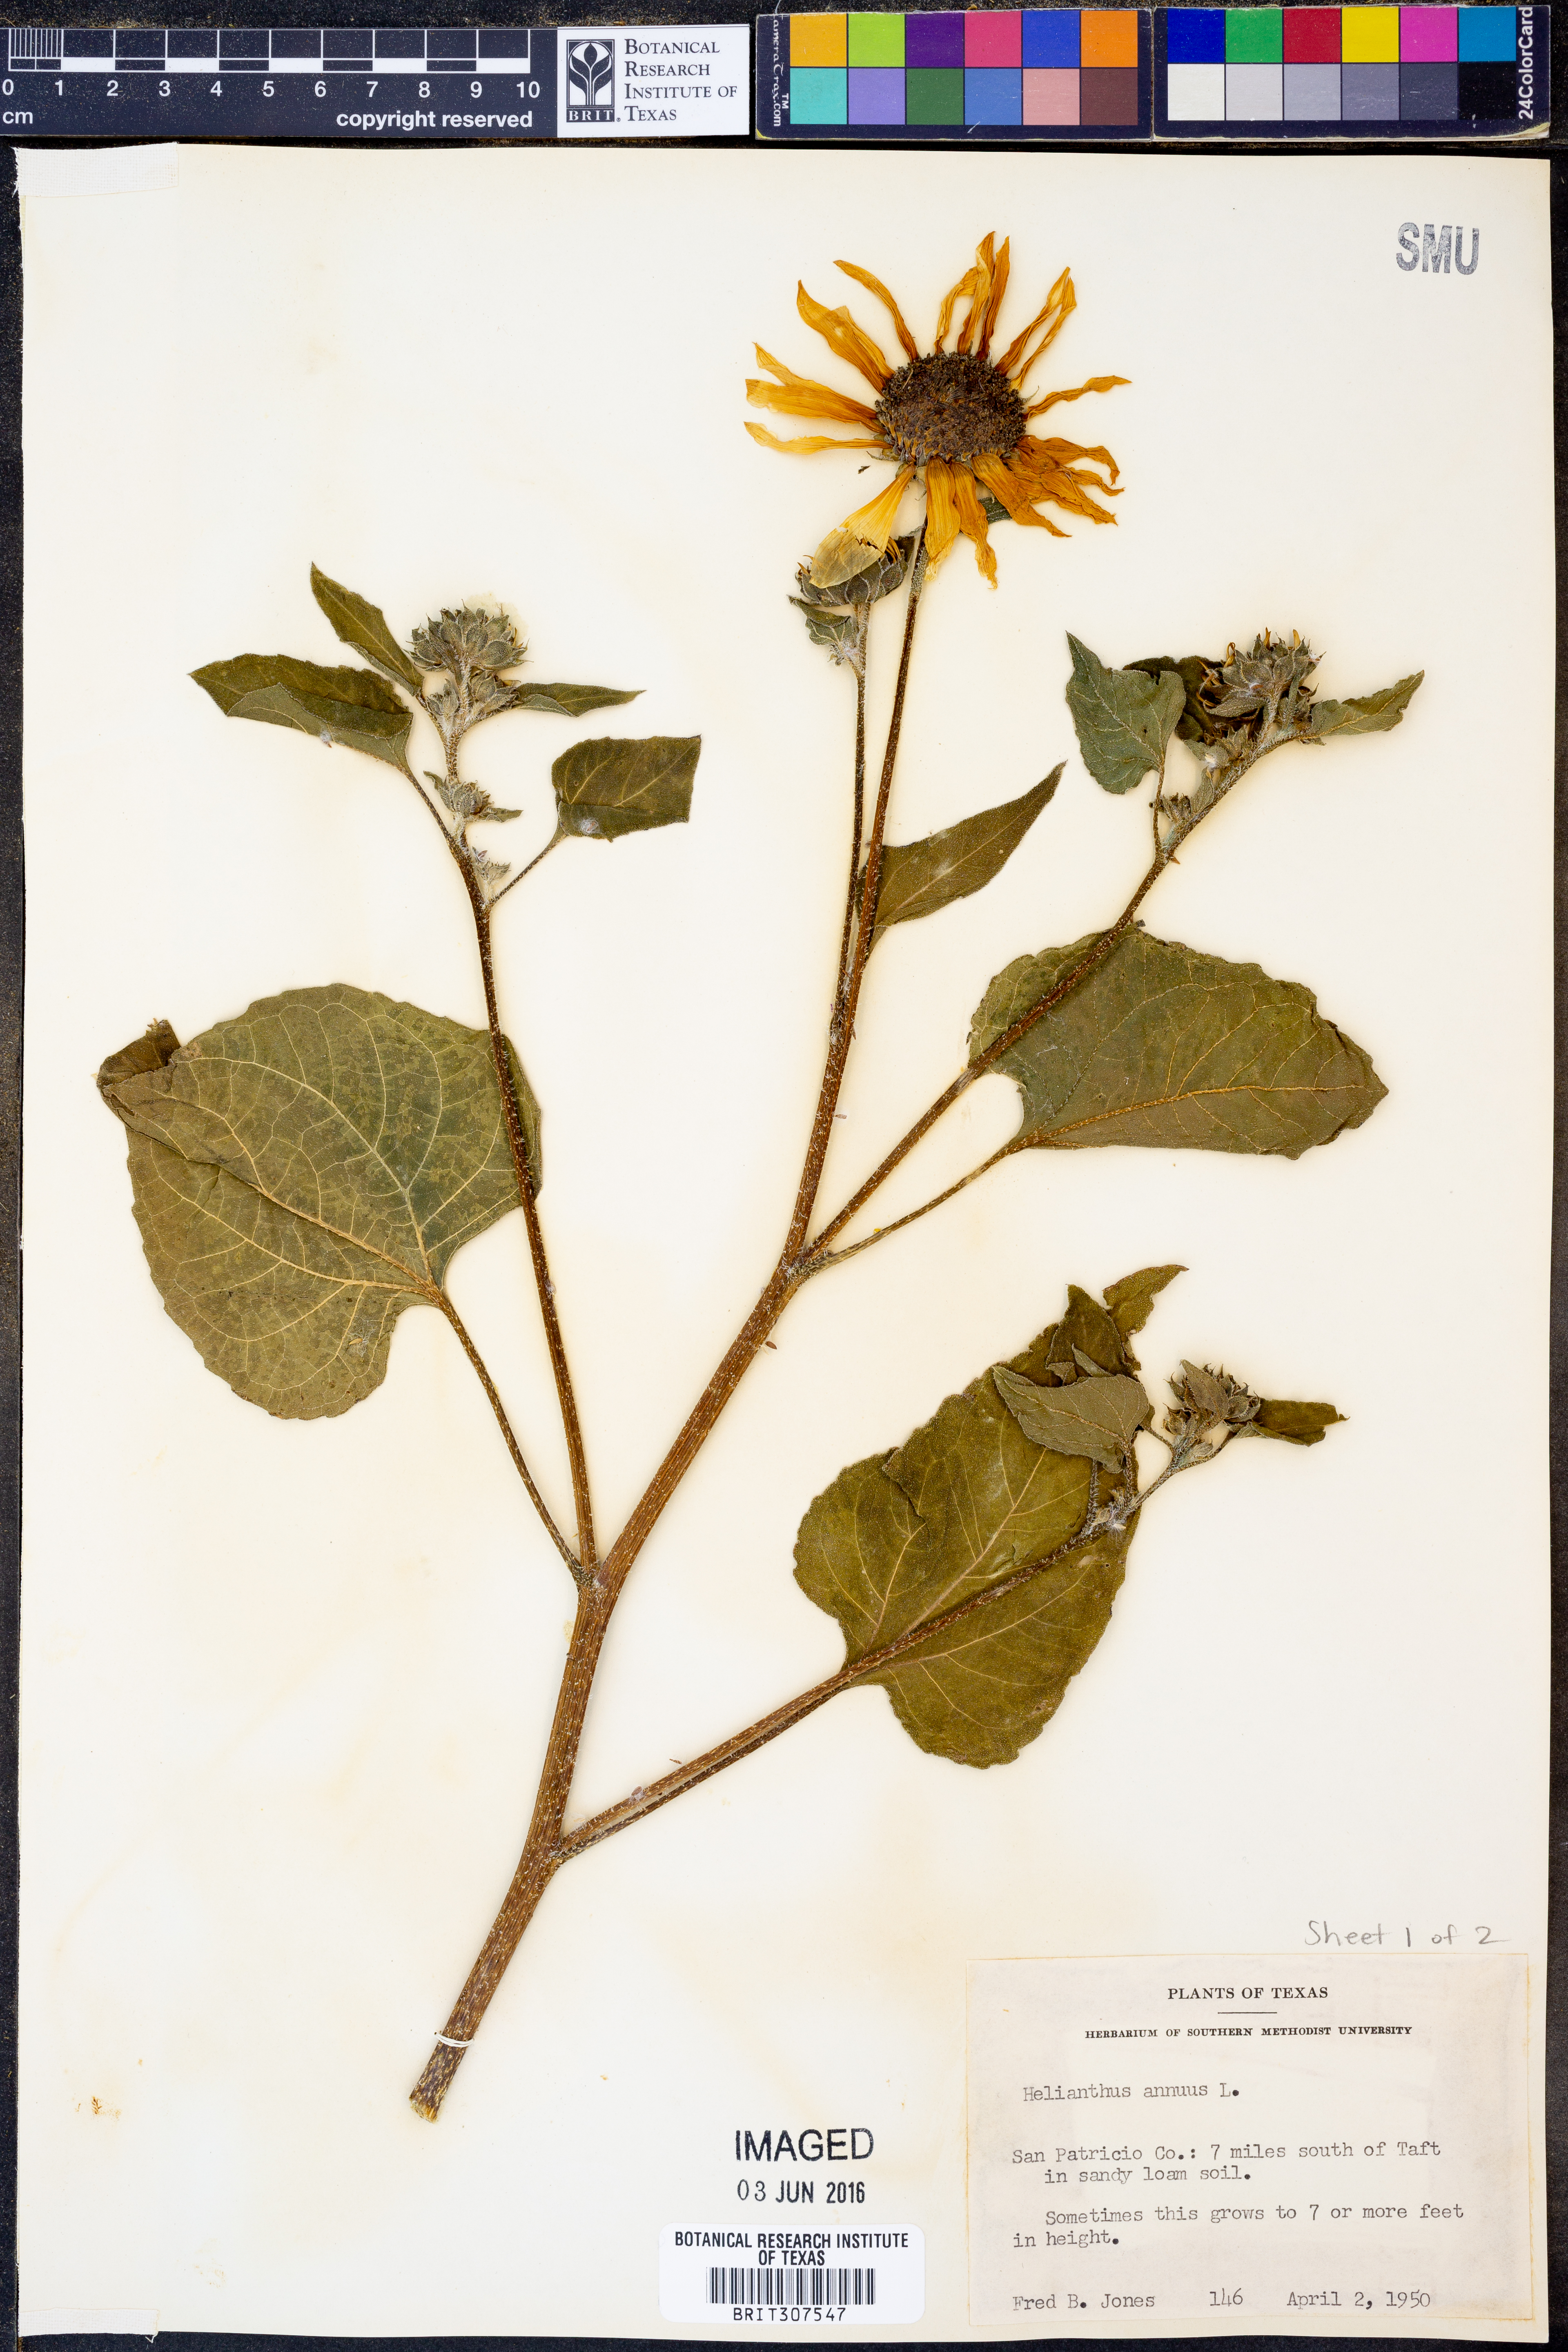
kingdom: Plantae
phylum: Tracheophyta
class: Magnoliopsida
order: Asterales
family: Asteraceae
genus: Helianthus
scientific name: Helianthus annuus
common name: Sunflower
